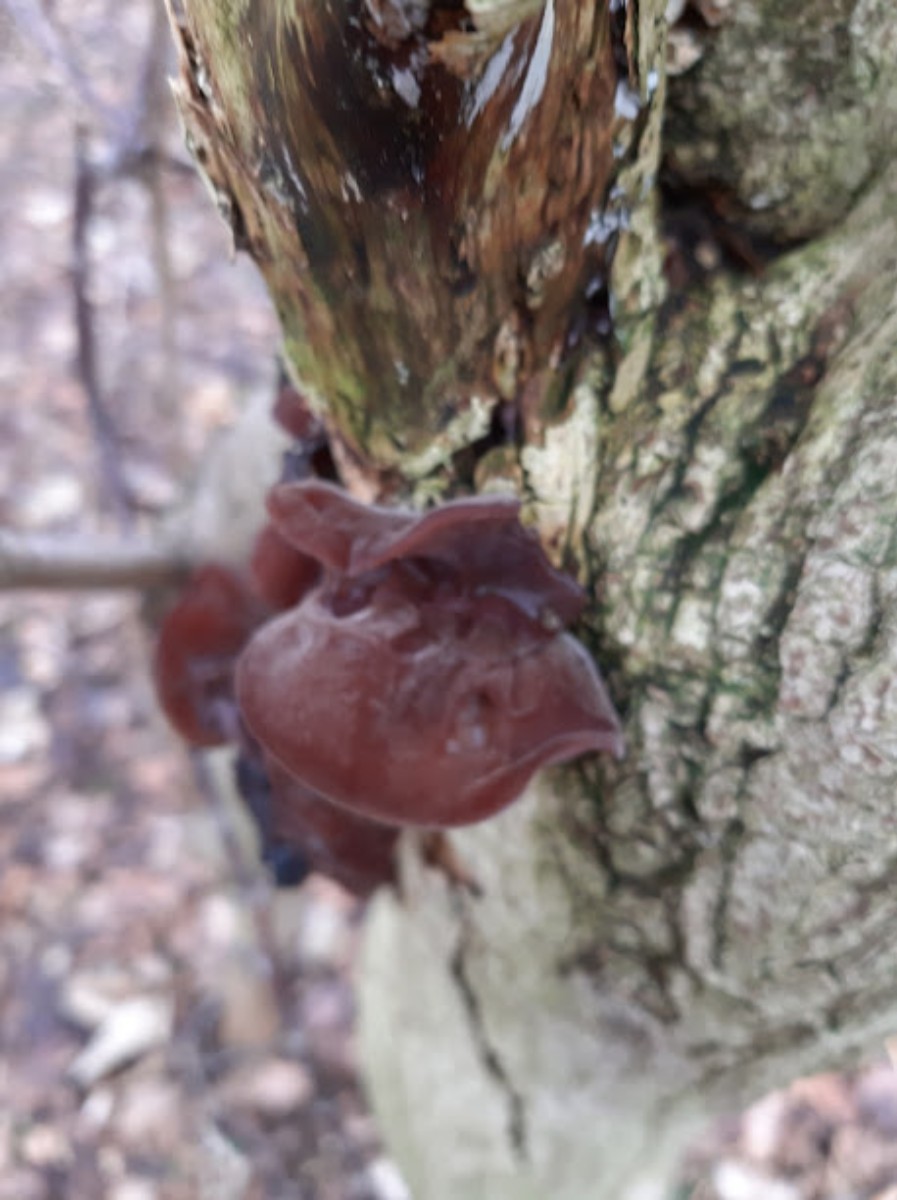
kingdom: Fungi
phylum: Basidiomycota
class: Agaricomycetes
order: Auriculariales
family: Auriculariaceae
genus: Auricularia
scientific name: Auricularia auricula-judae
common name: almindelig judasøre
